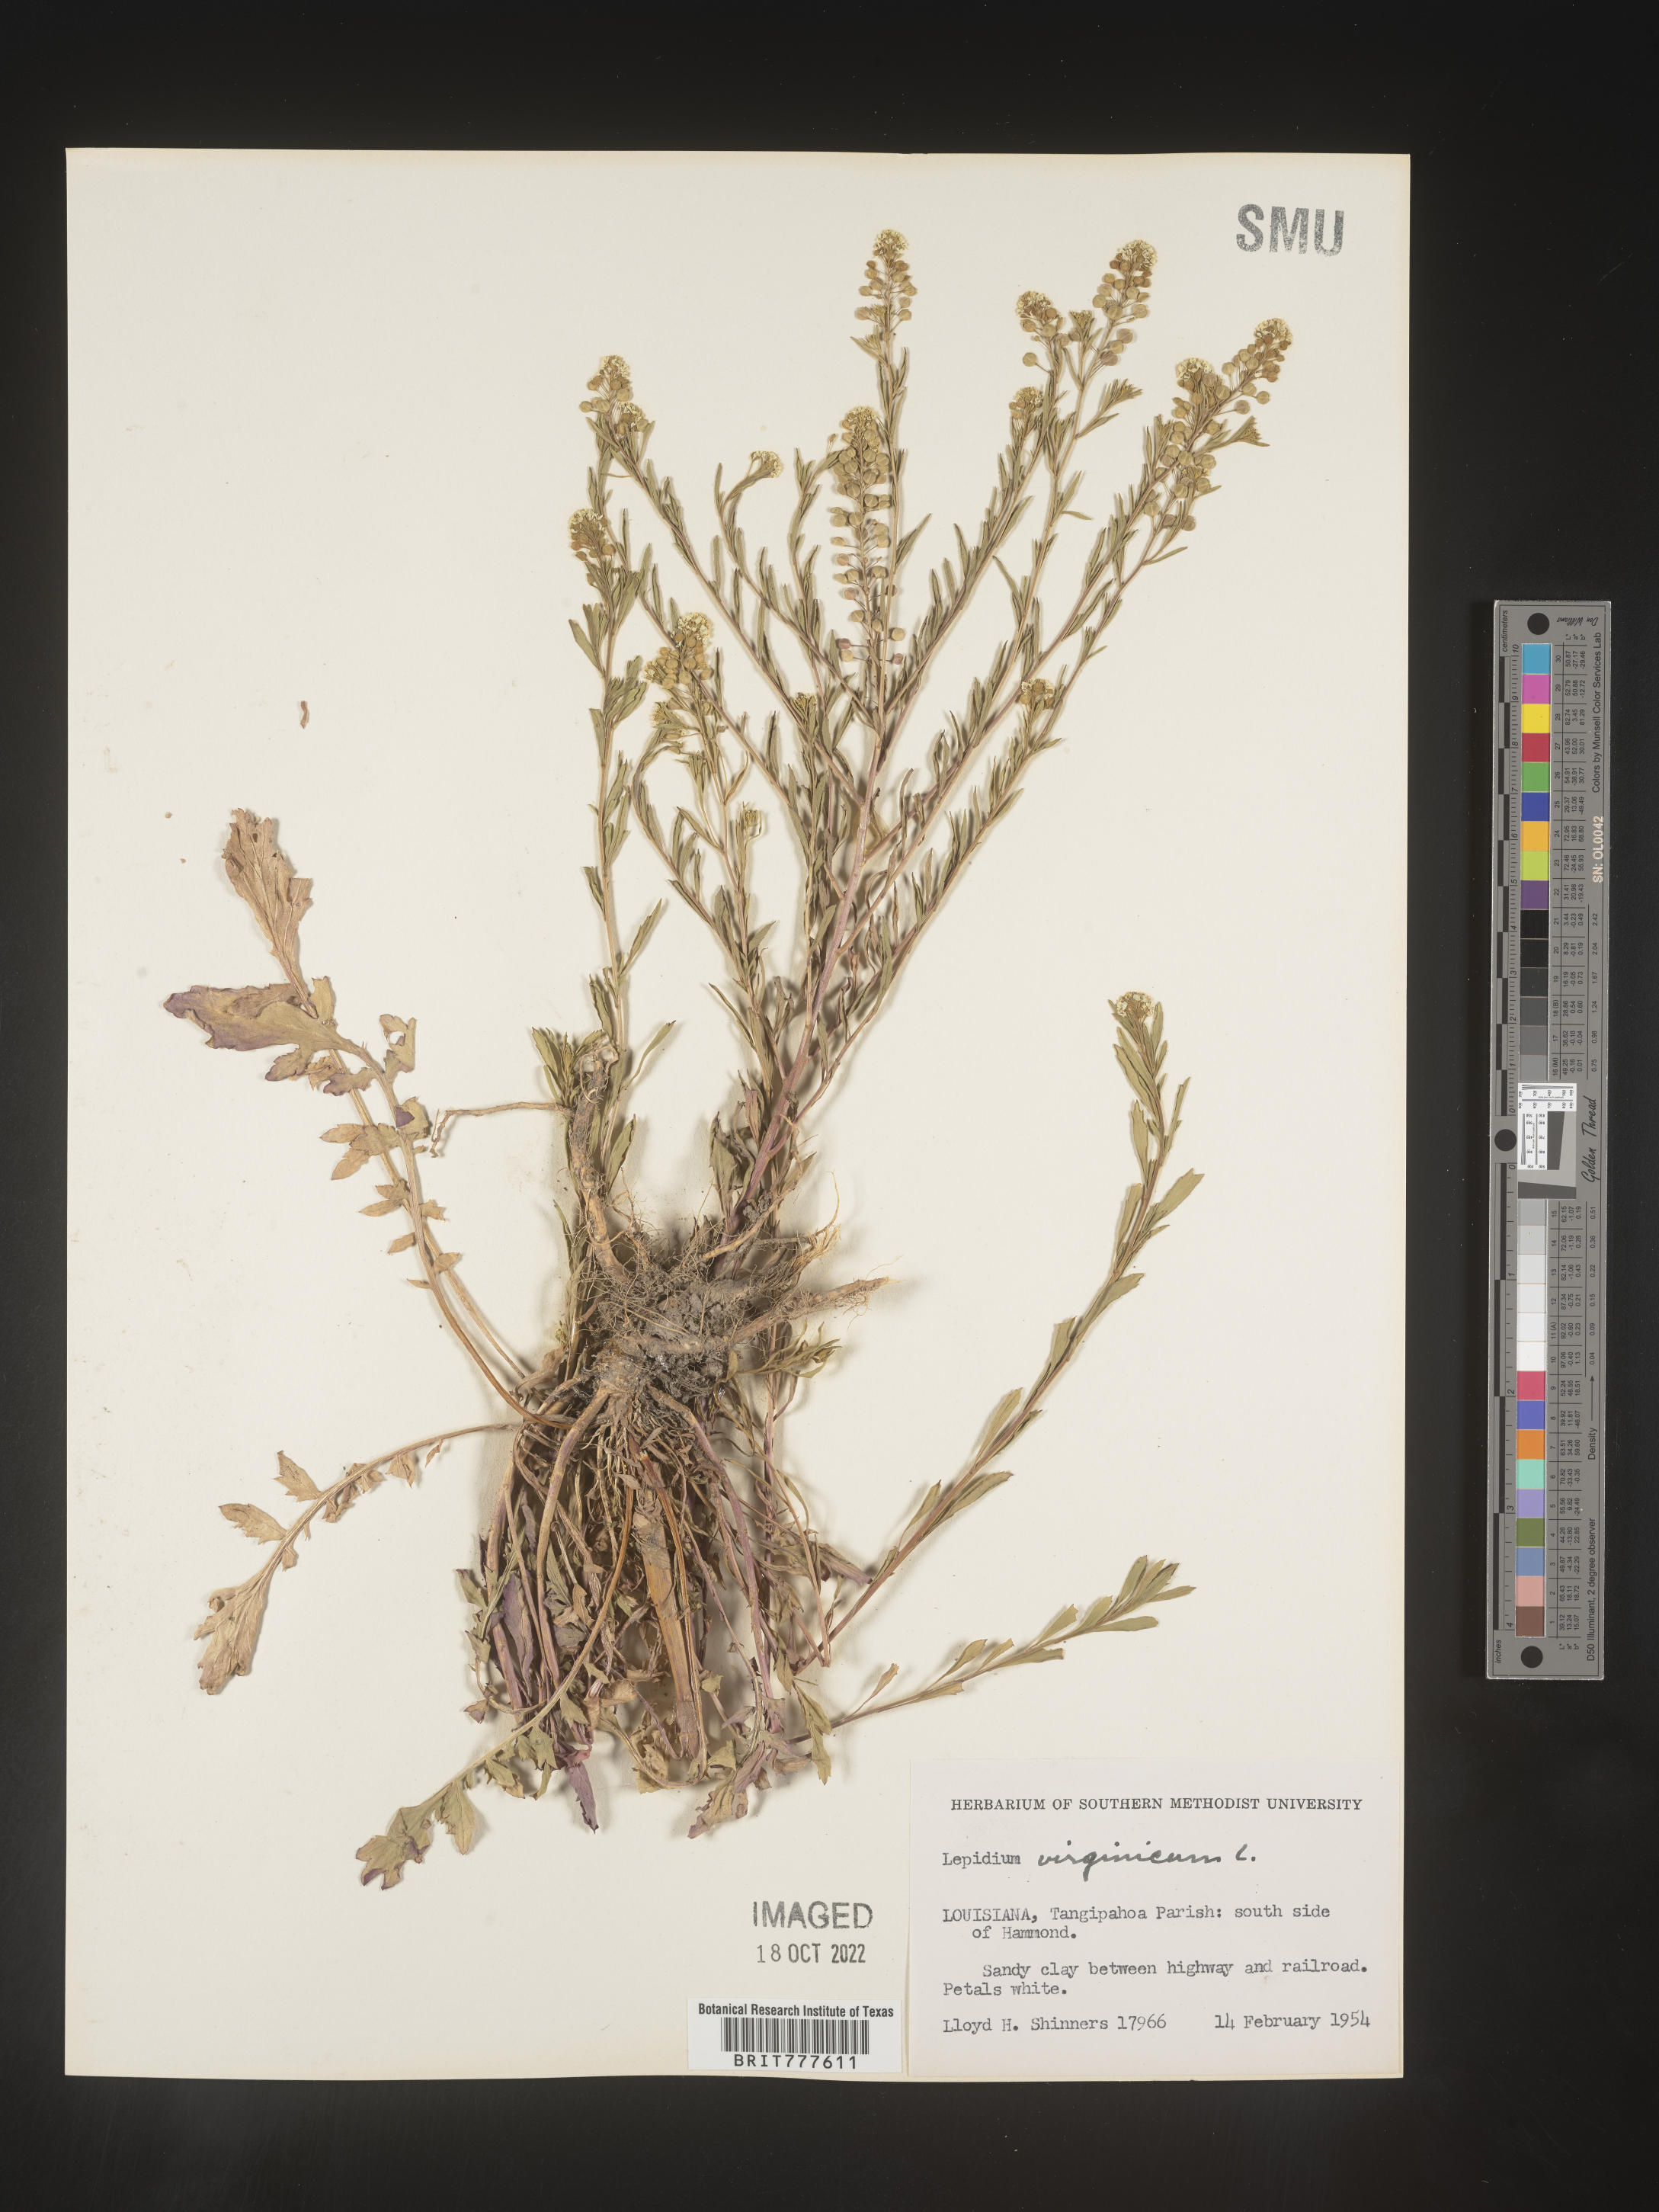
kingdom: Plantae
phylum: Tracheophyta
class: Magnoliopsida
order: Brassicales
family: Brassicaceae
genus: Lepidium
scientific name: Lepidium virginicum
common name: Least pepperwort
